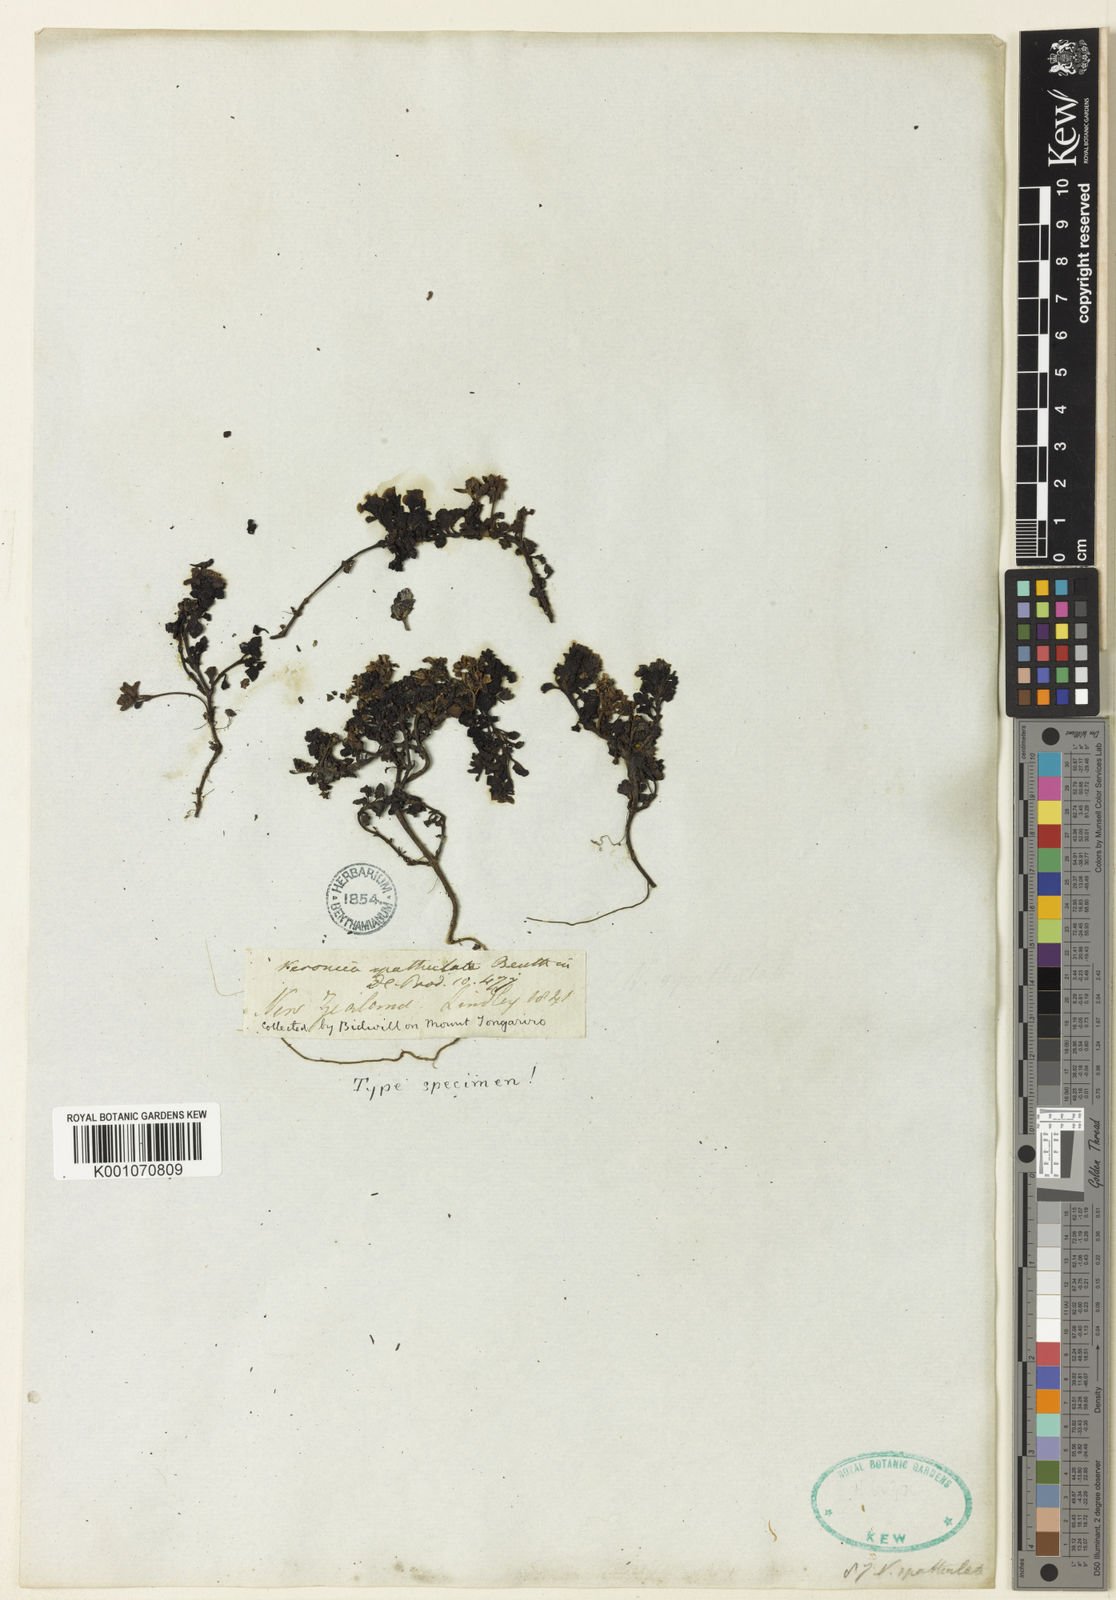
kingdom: Plantae
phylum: Tracheophyta
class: Magnoliopsida
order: Lamiales
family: Plantaginaceae
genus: Veronica
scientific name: Veronica spathulata
